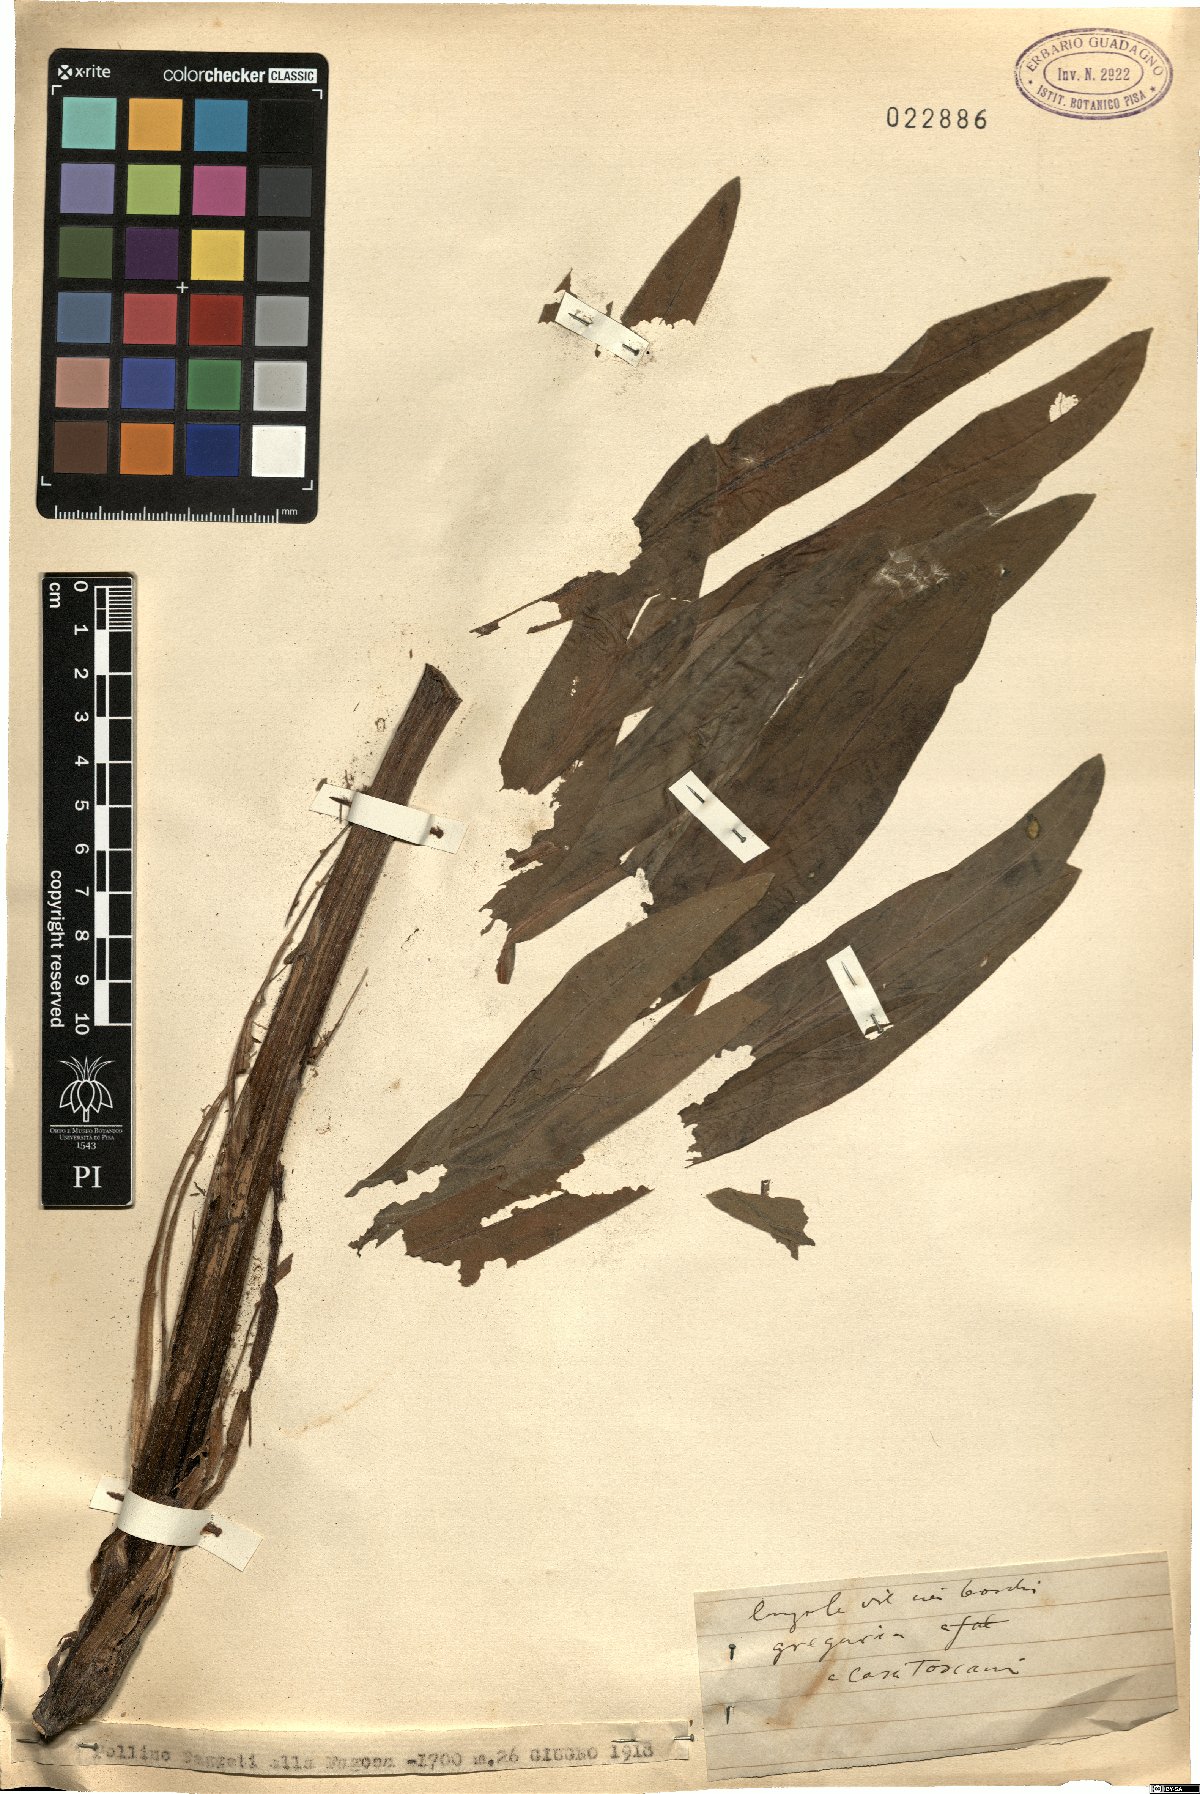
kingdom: Plantae
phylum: Tracheophyta
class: Magnoliopsida
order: Boraginales
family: Boraginaceae
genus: Rindera
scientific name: Rindera
